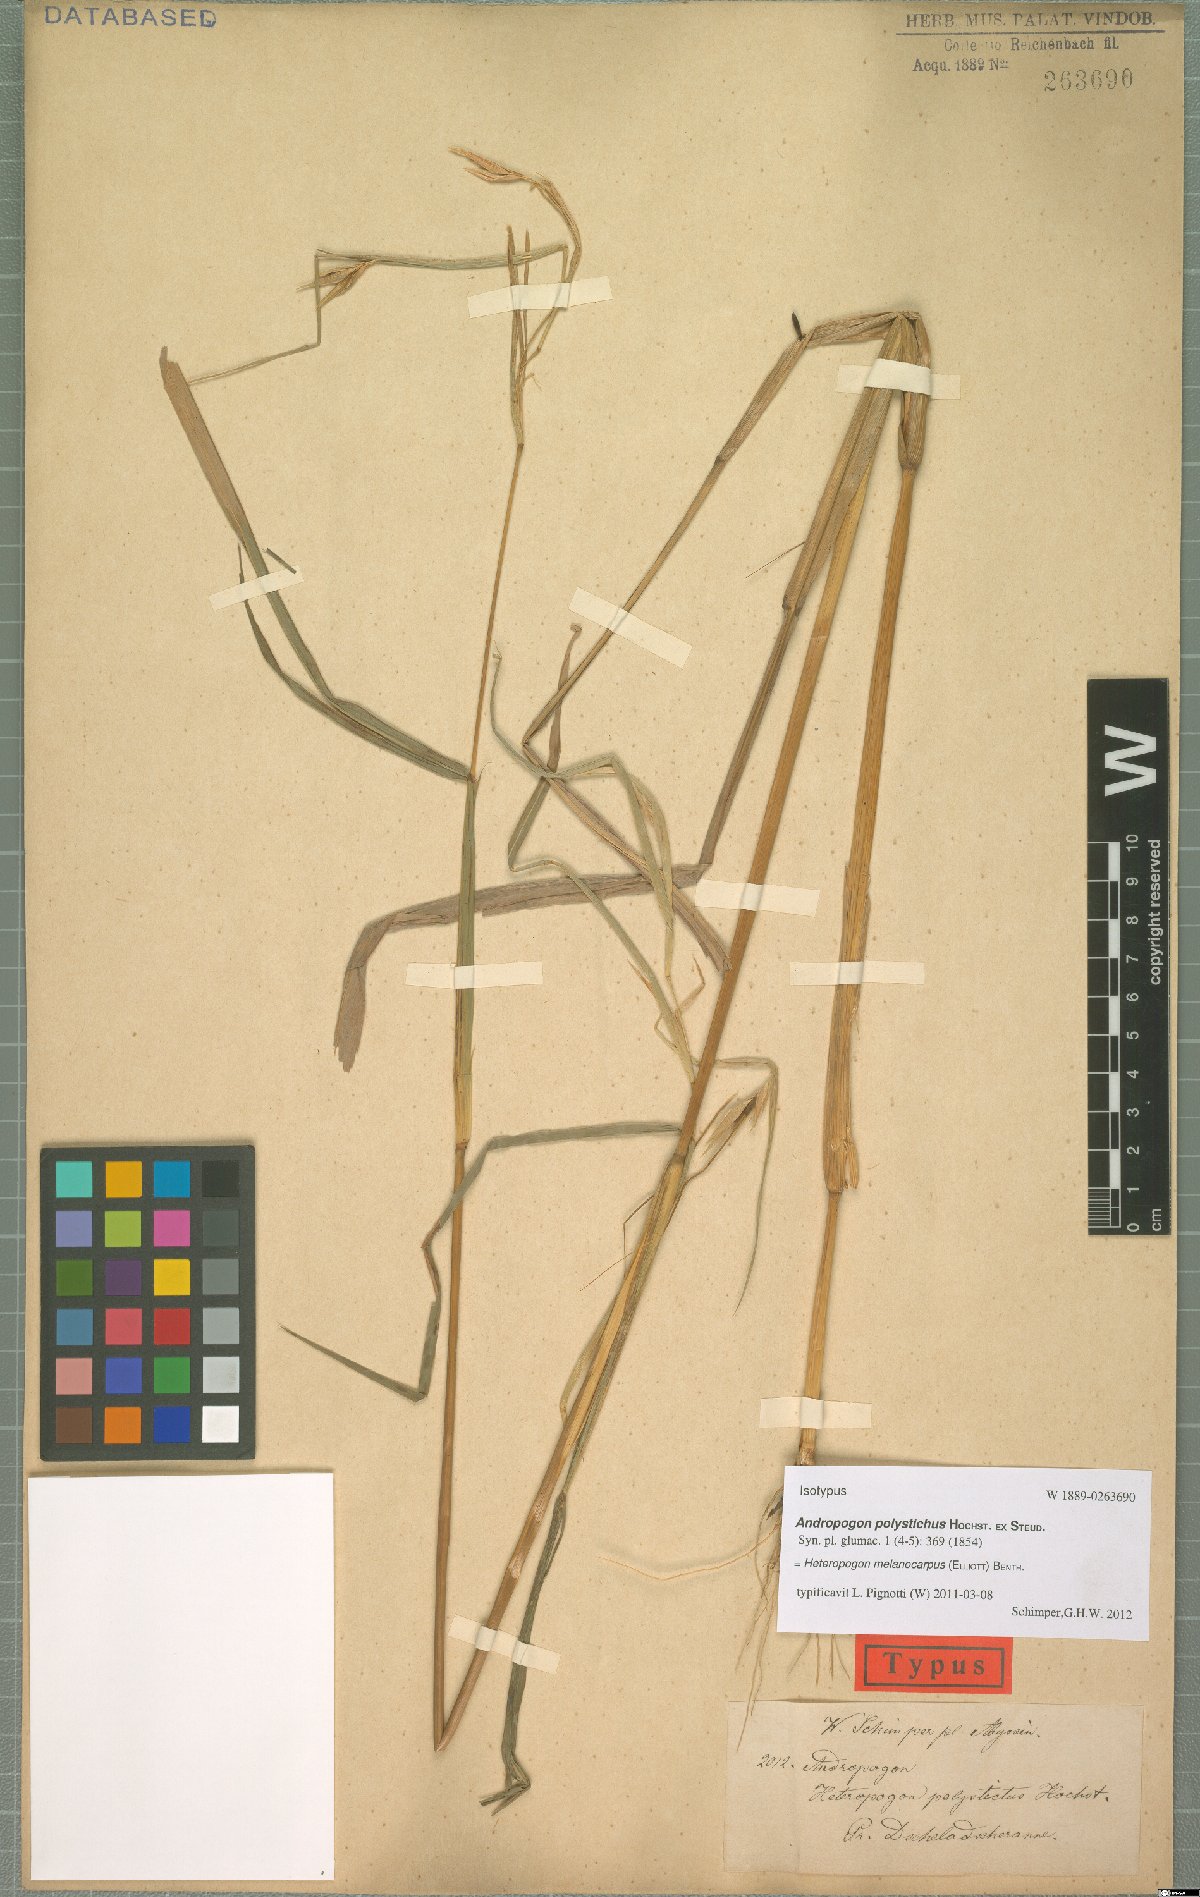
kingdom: Plantae
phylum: Tracheophyta
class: Liliopsida
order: Poales
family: Poaceae
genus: Heteropogon
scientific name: Heteropogon melanocarpus
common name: Sweet tanglehead
